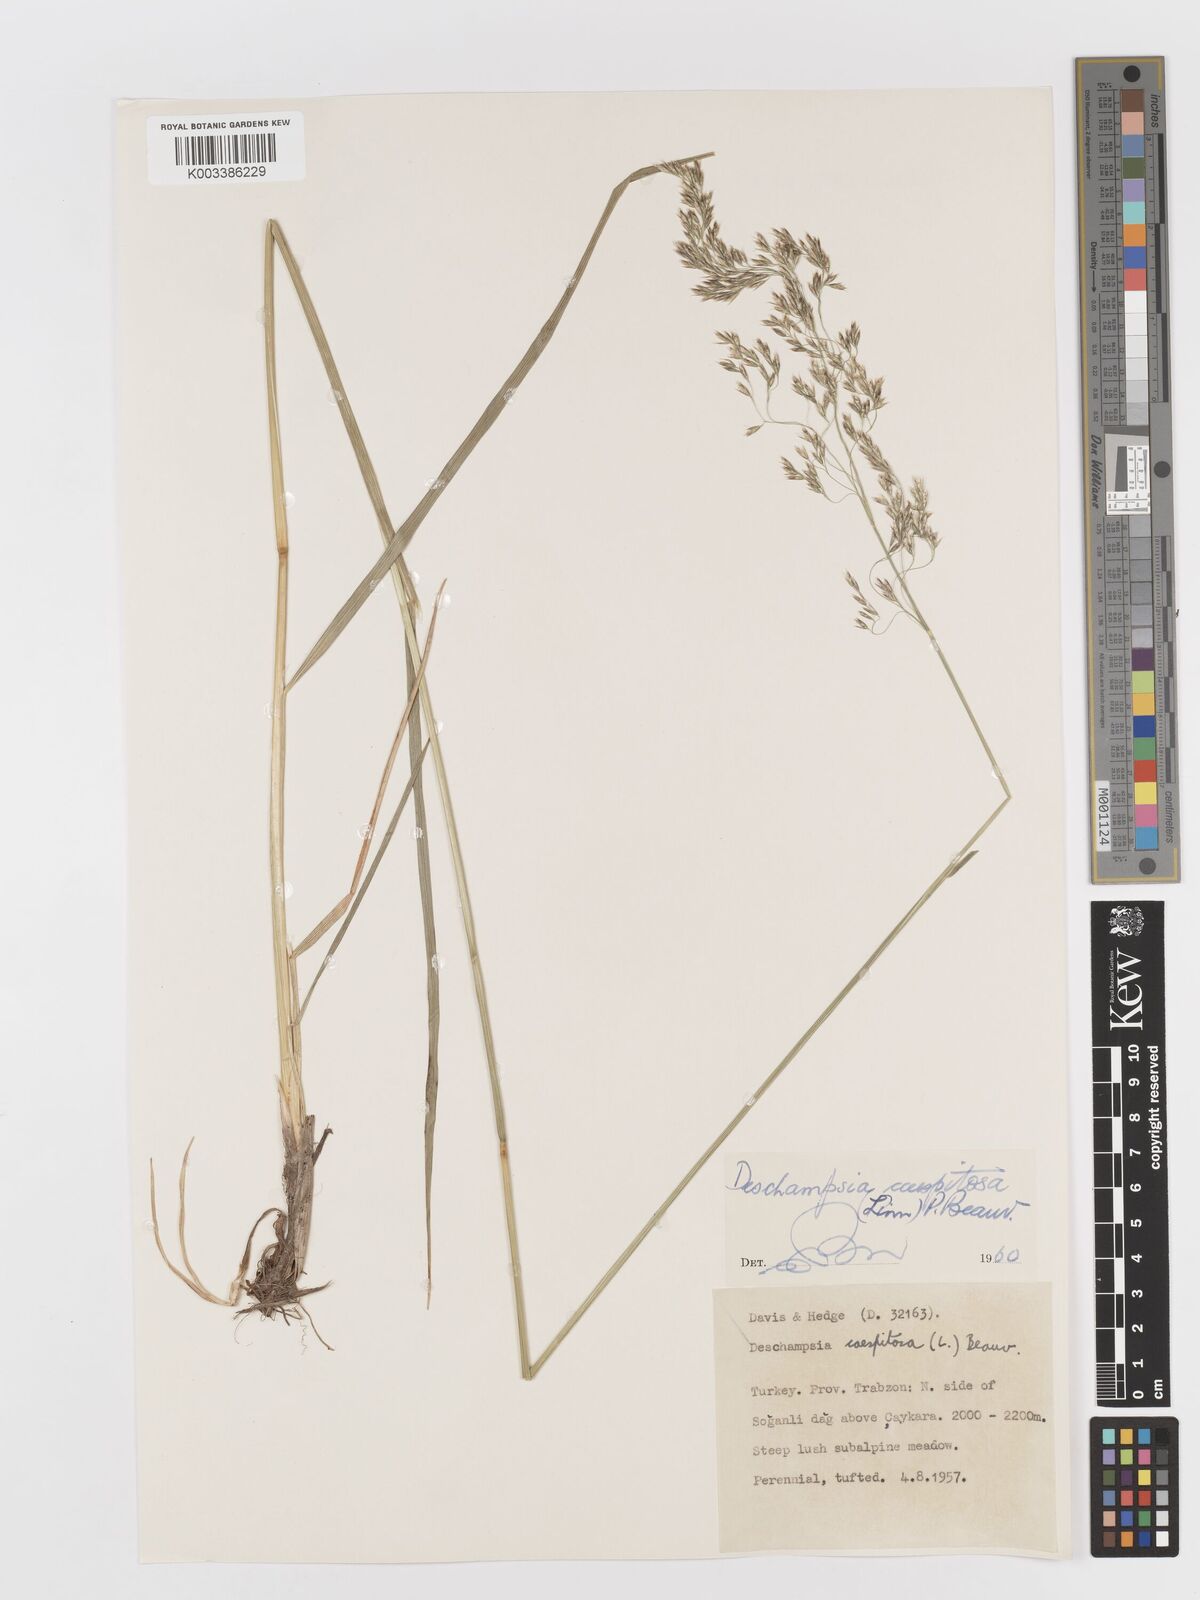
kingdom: Plantae
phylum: Tracheophyta
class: Liliopsida
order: Poales
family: Poaceae
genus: Deschampsia
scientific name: Deschampsia cespitosa
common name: Tufted hair-grass
